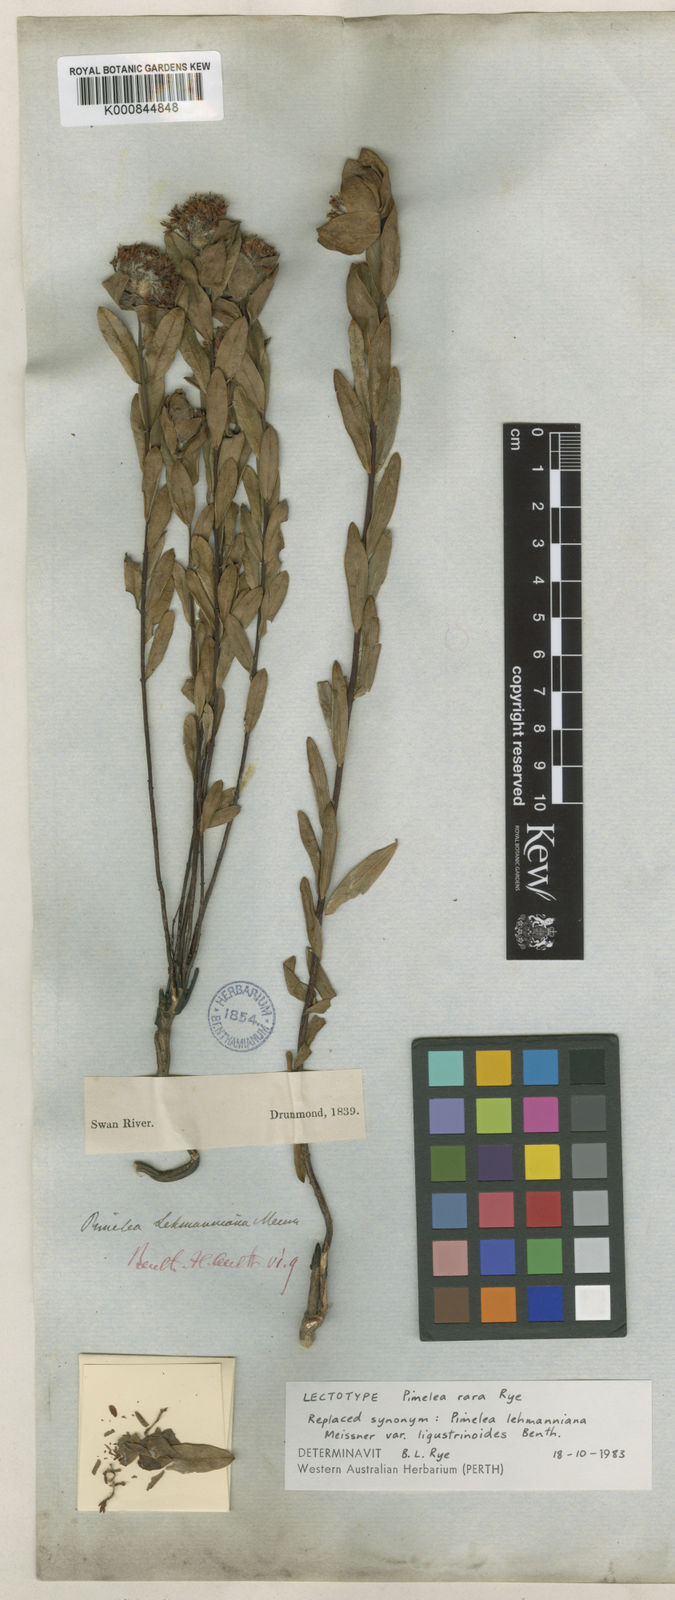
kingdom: Plantae
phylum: Tracheophyta
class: Magnoliopsida
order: Malvales
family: Thymelaeaceae
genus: Pimelea
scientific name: Pimelea rara
